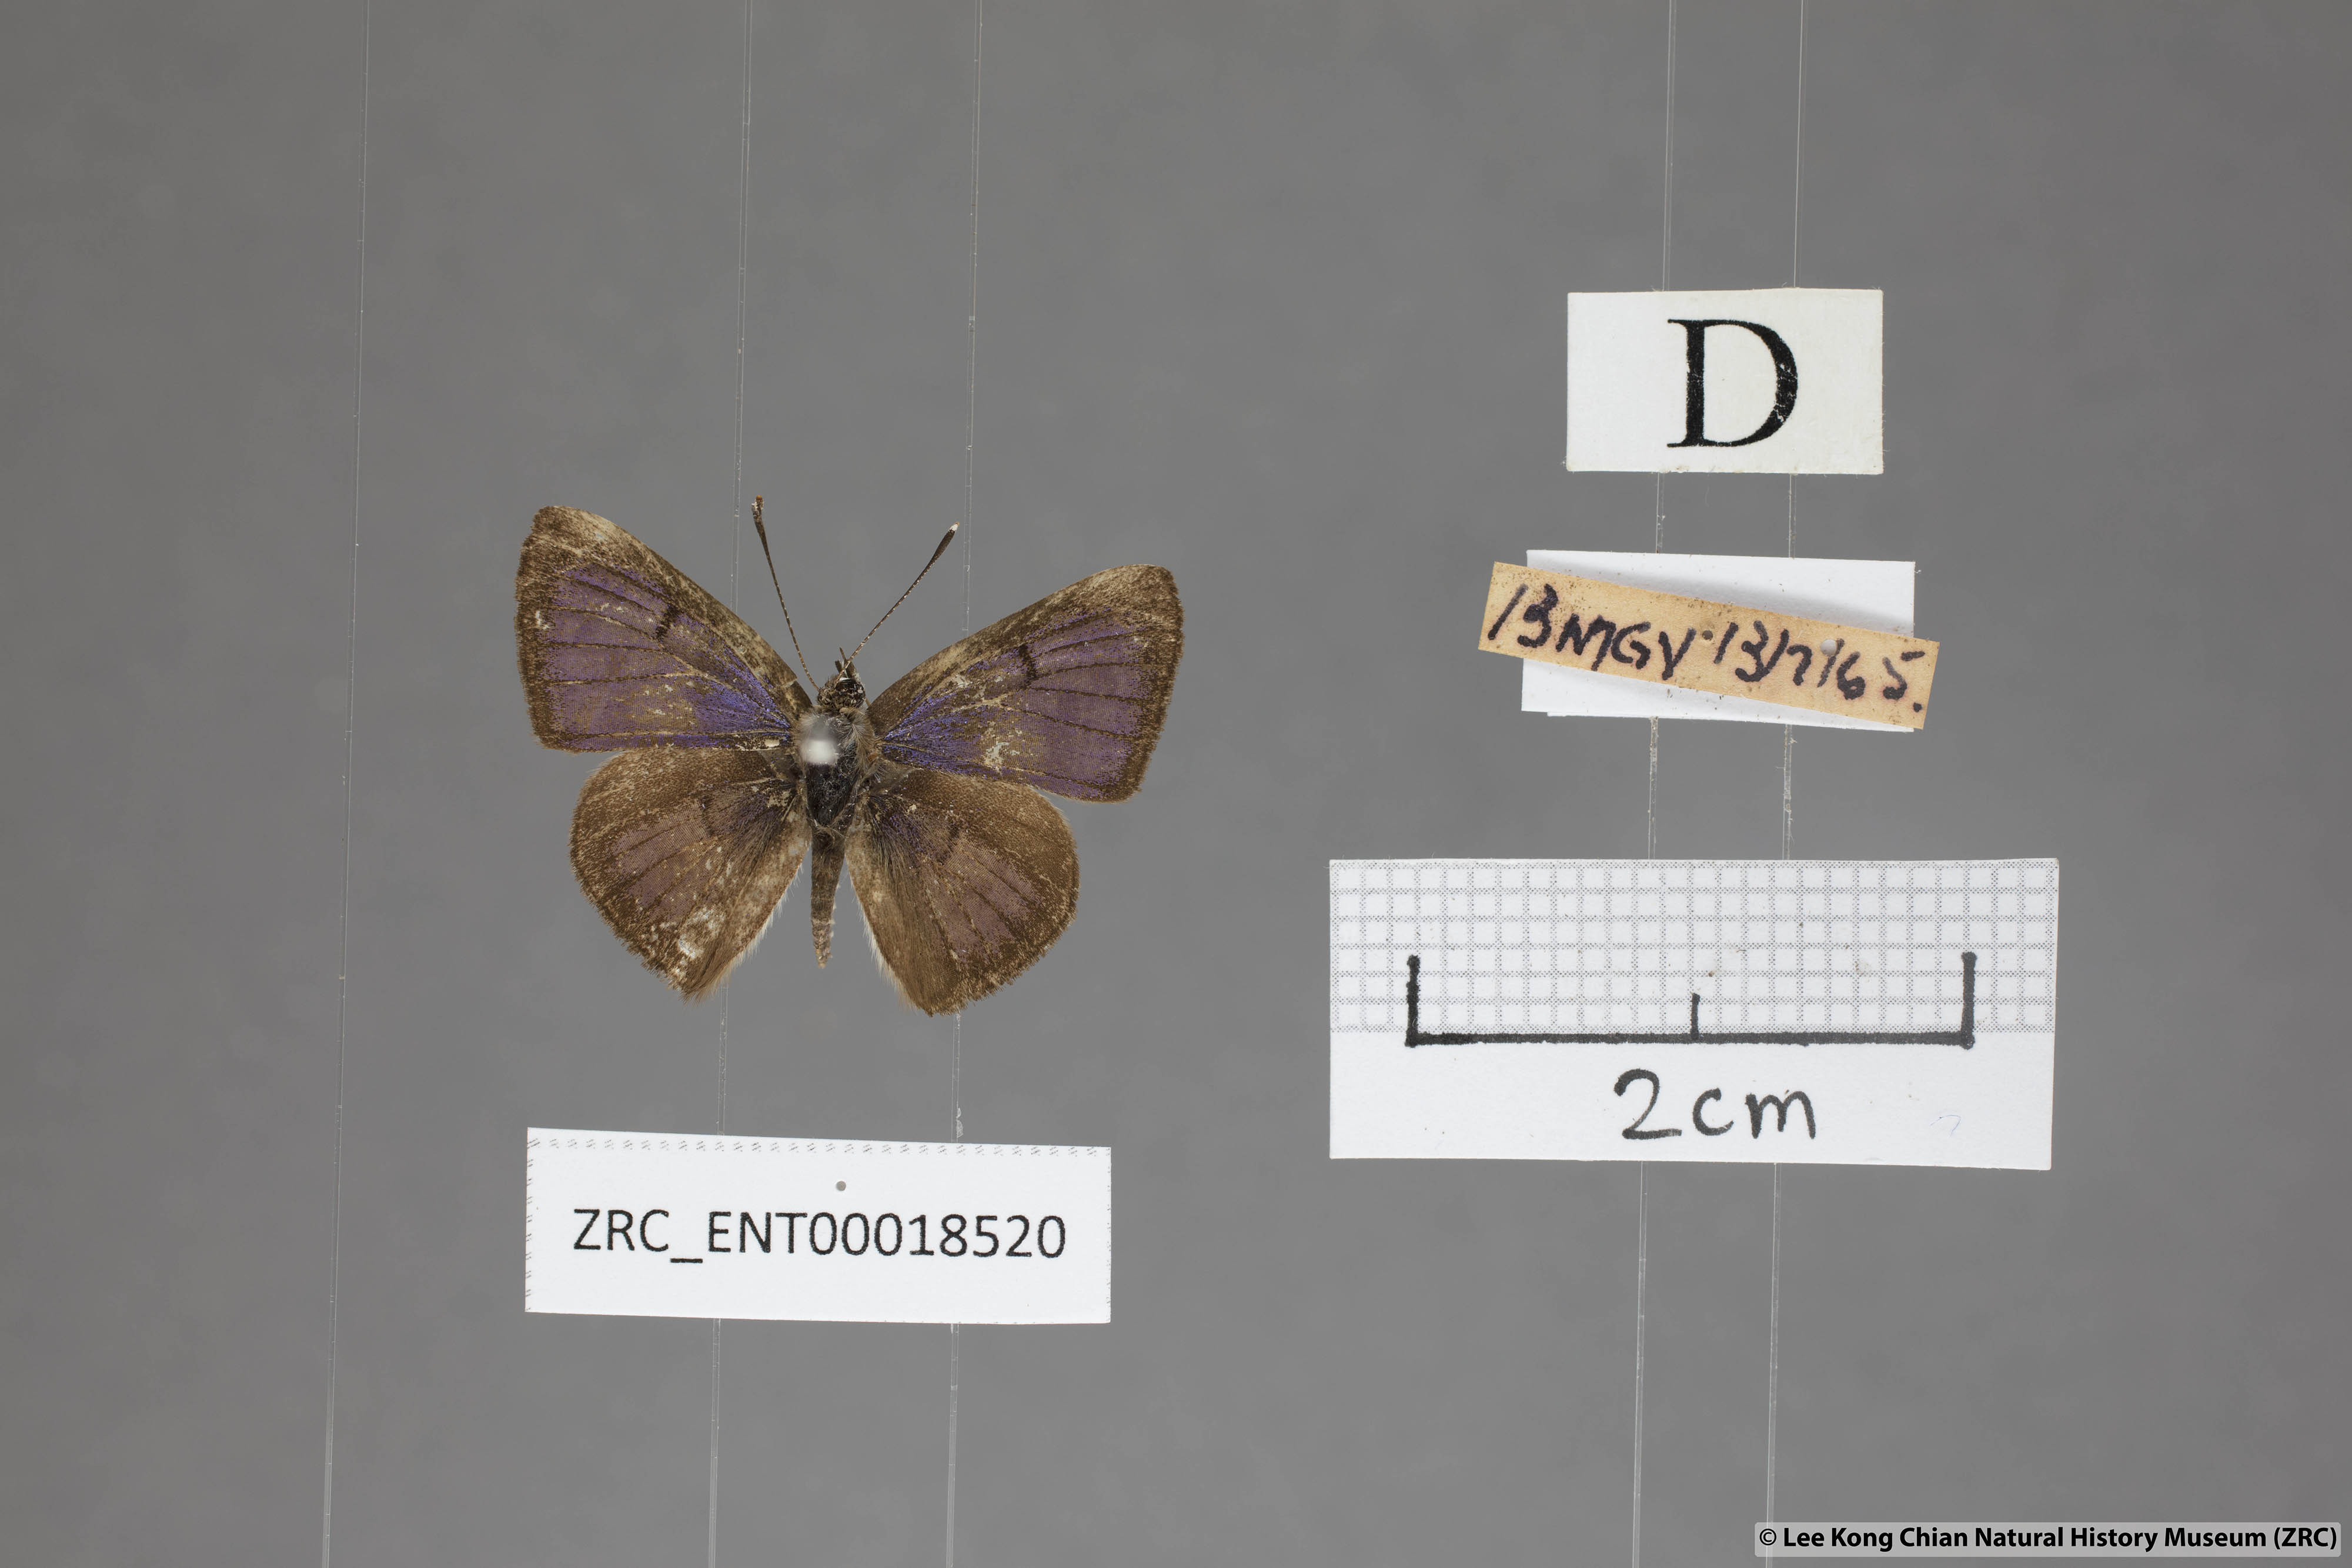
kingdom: Animalia
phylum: Arthropoda
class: Insecta
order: Lepidoptera
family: Lycaenidae
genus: Niphanda
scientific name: Niphanda cymbia
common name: Small pointed pierrot
